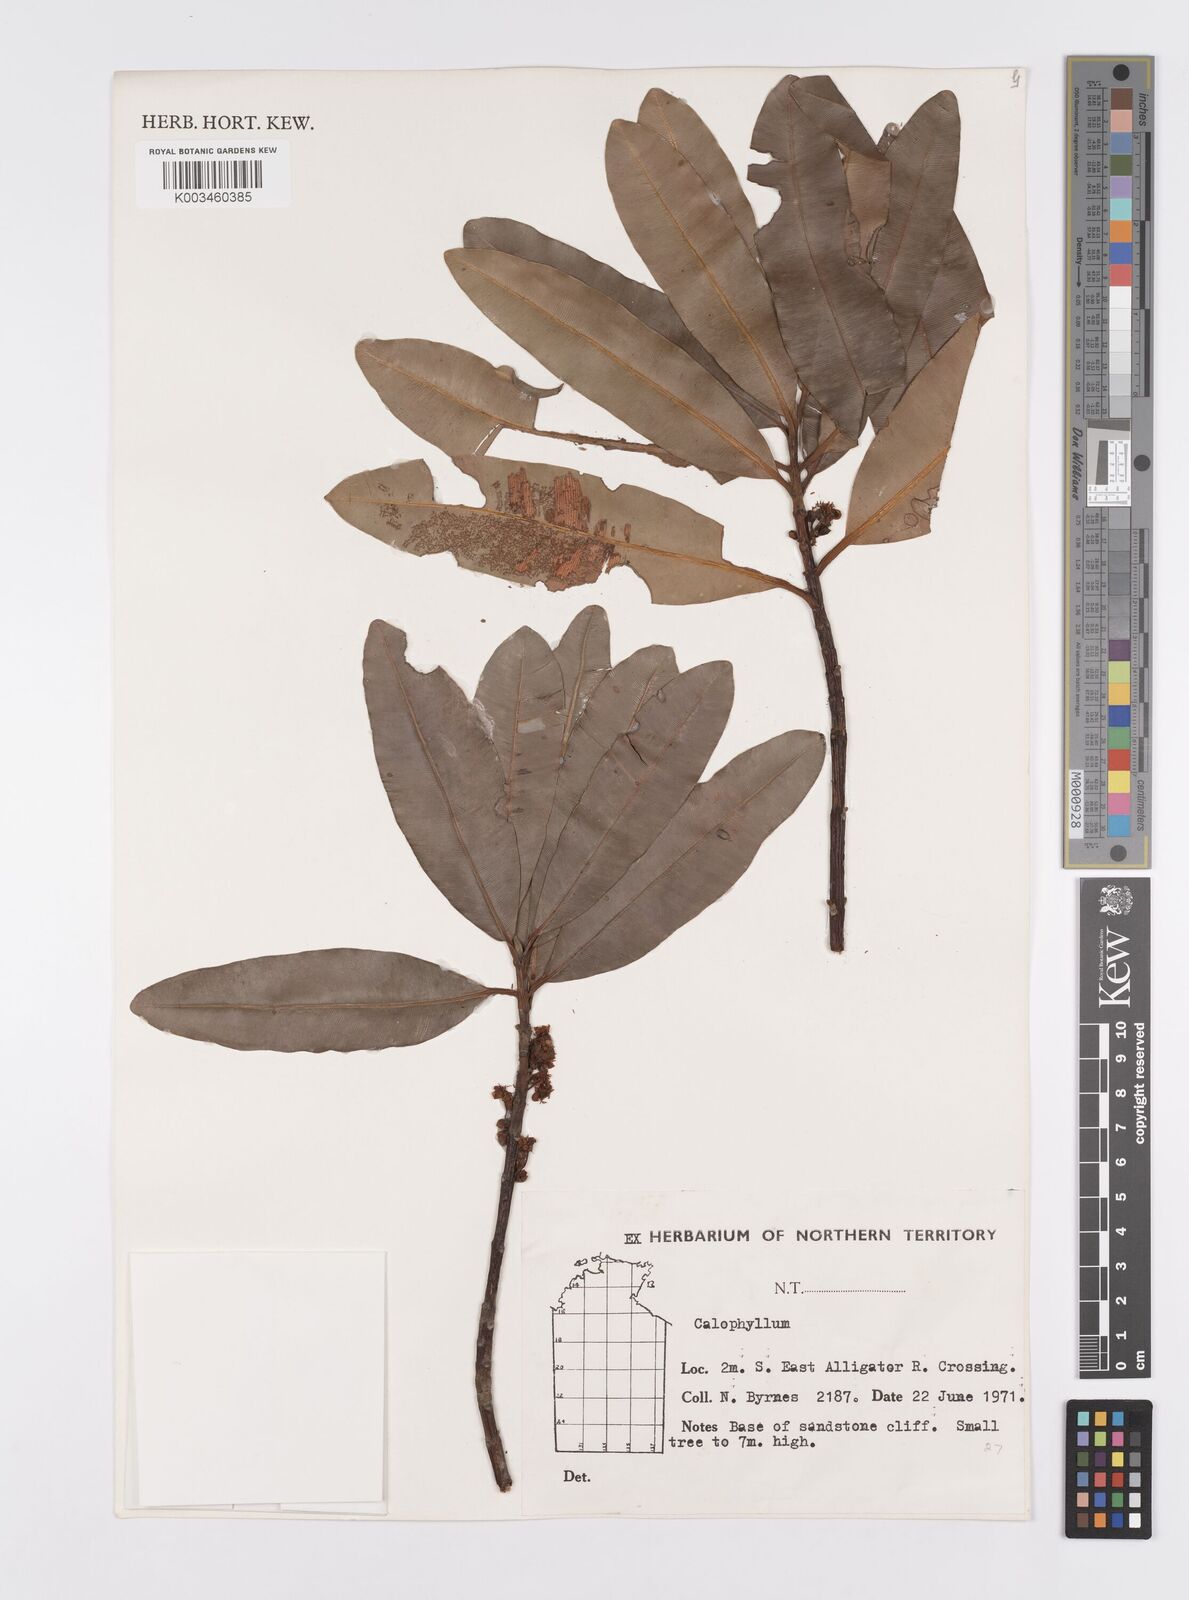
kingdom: Plantae
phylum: Tracheophyta
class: Magnoliopsida
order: Malpighiales
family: Calophyllaceae
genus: Calophyllum
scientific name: Calophyllum
